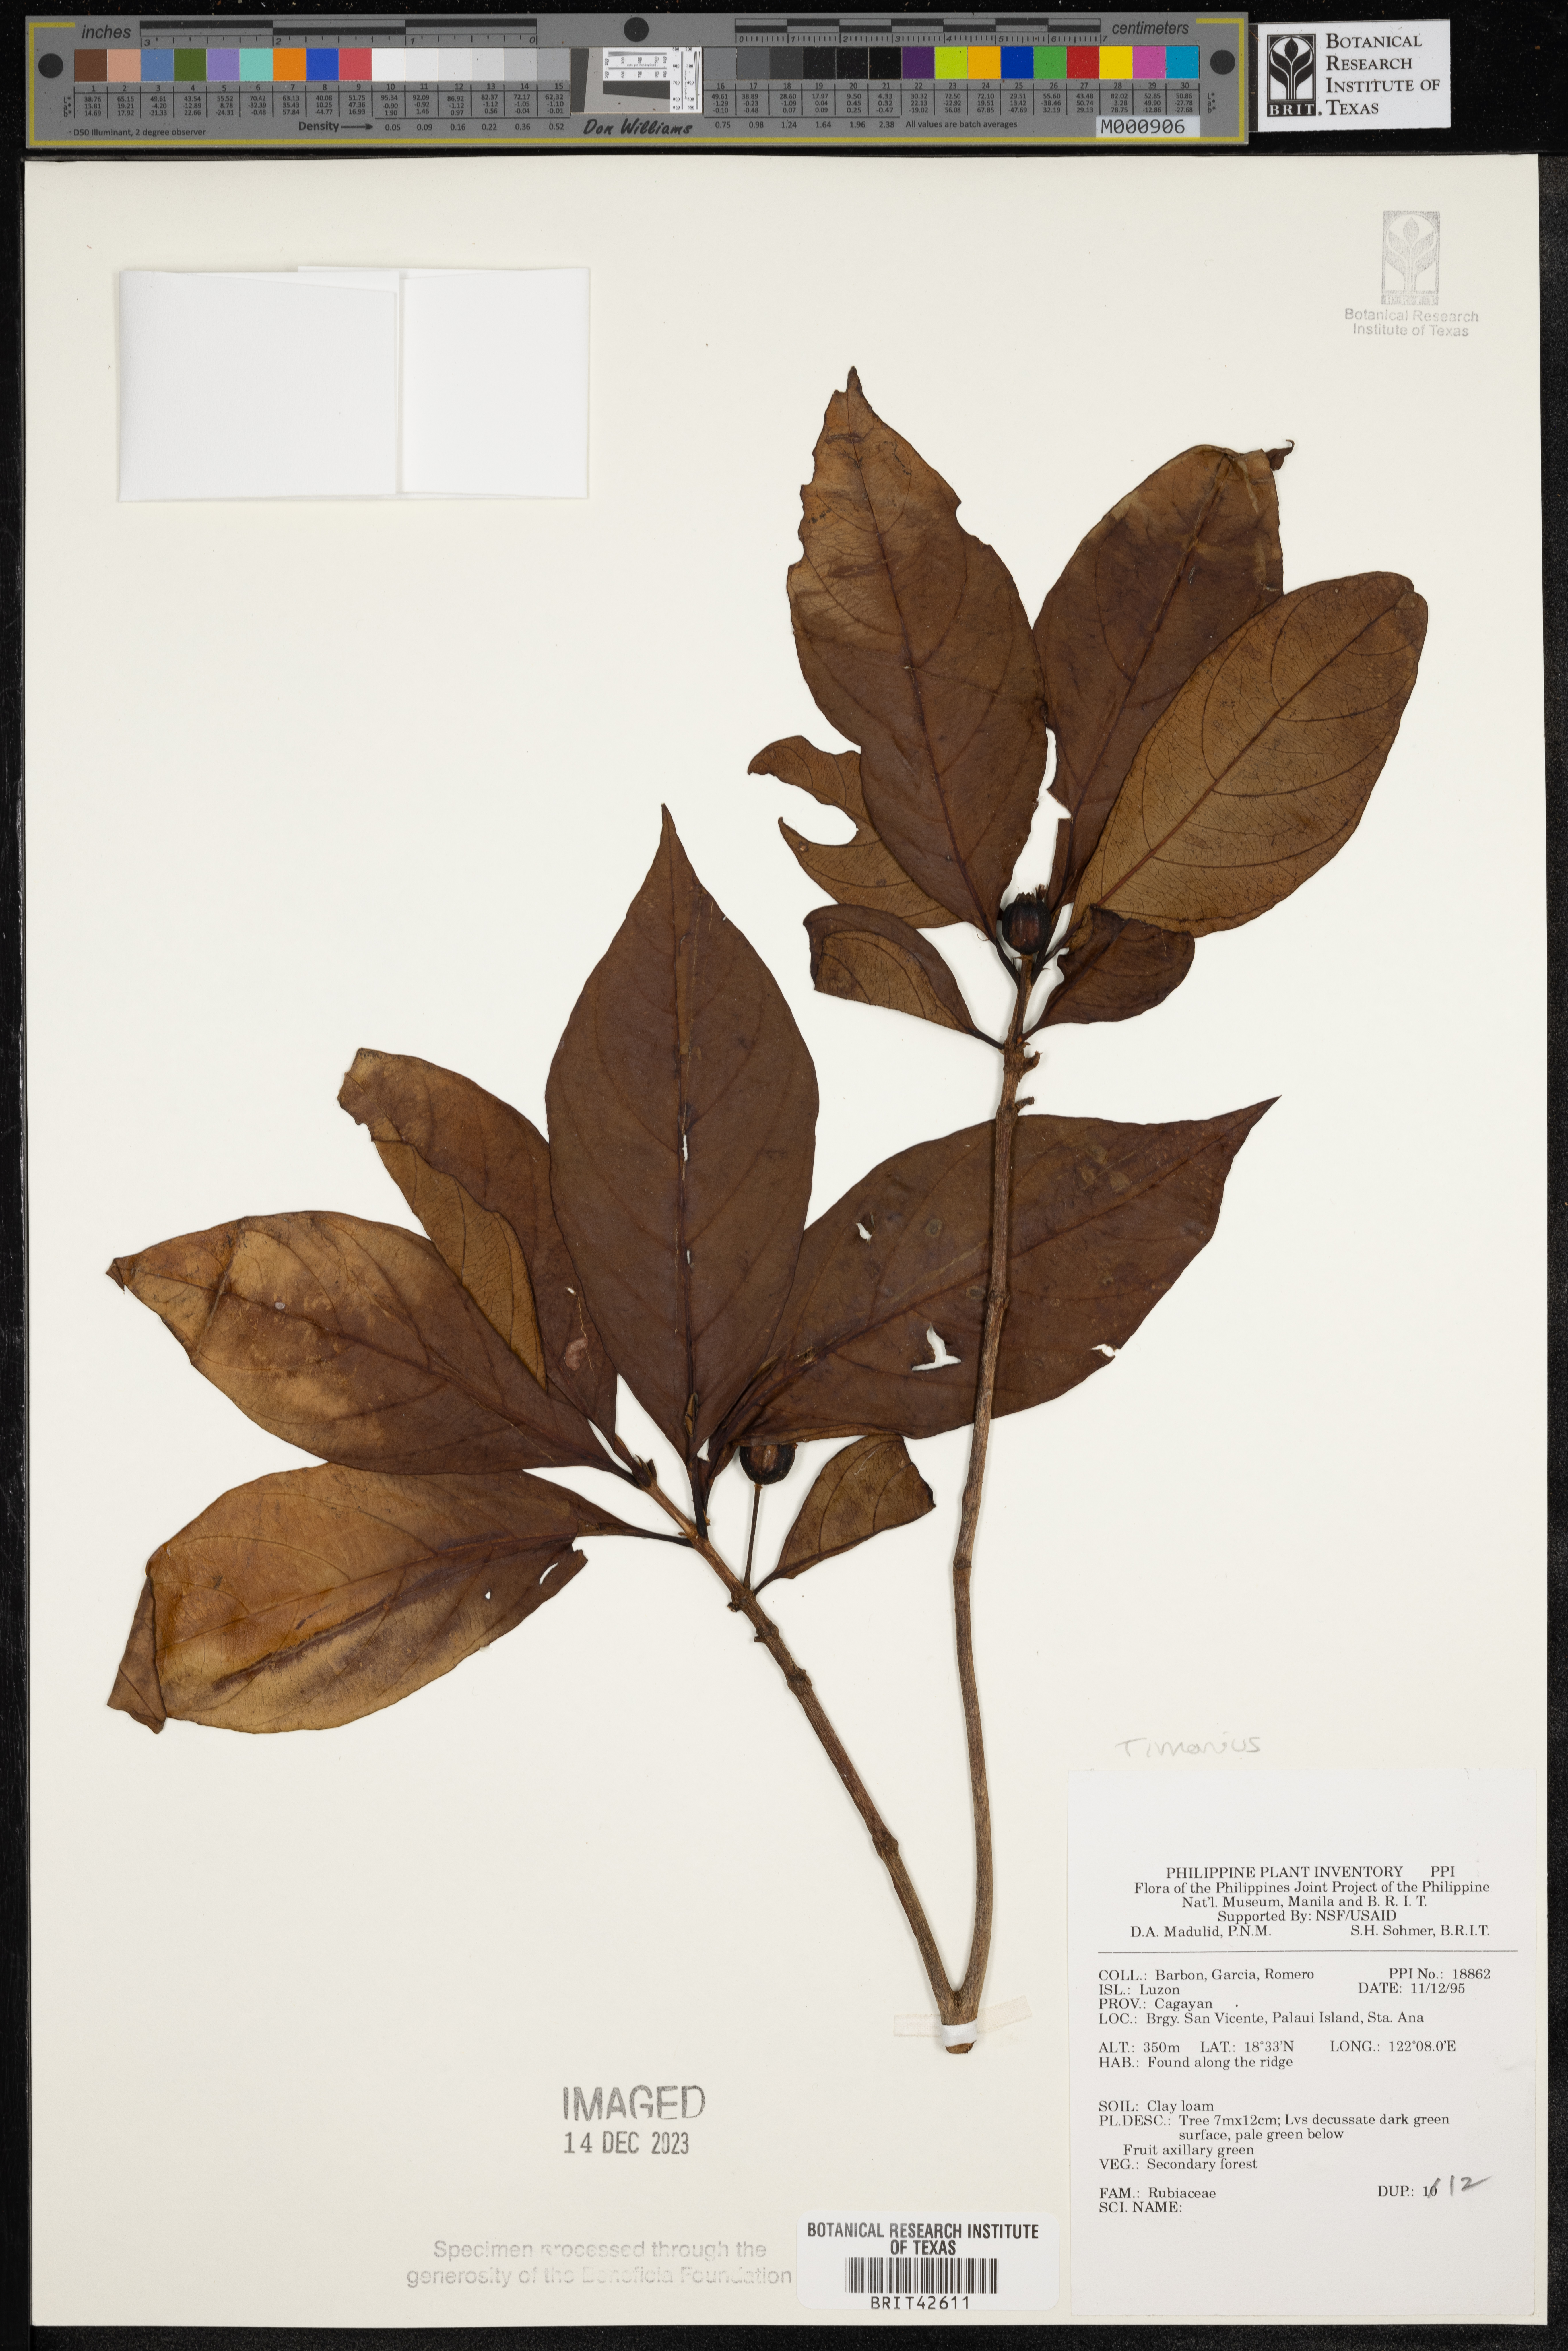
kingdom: Plantae
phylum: Tracheophyta
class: Magnoliopsida
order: Gentianales
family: Rubiaceae
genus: Timonius
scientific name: Timonius
